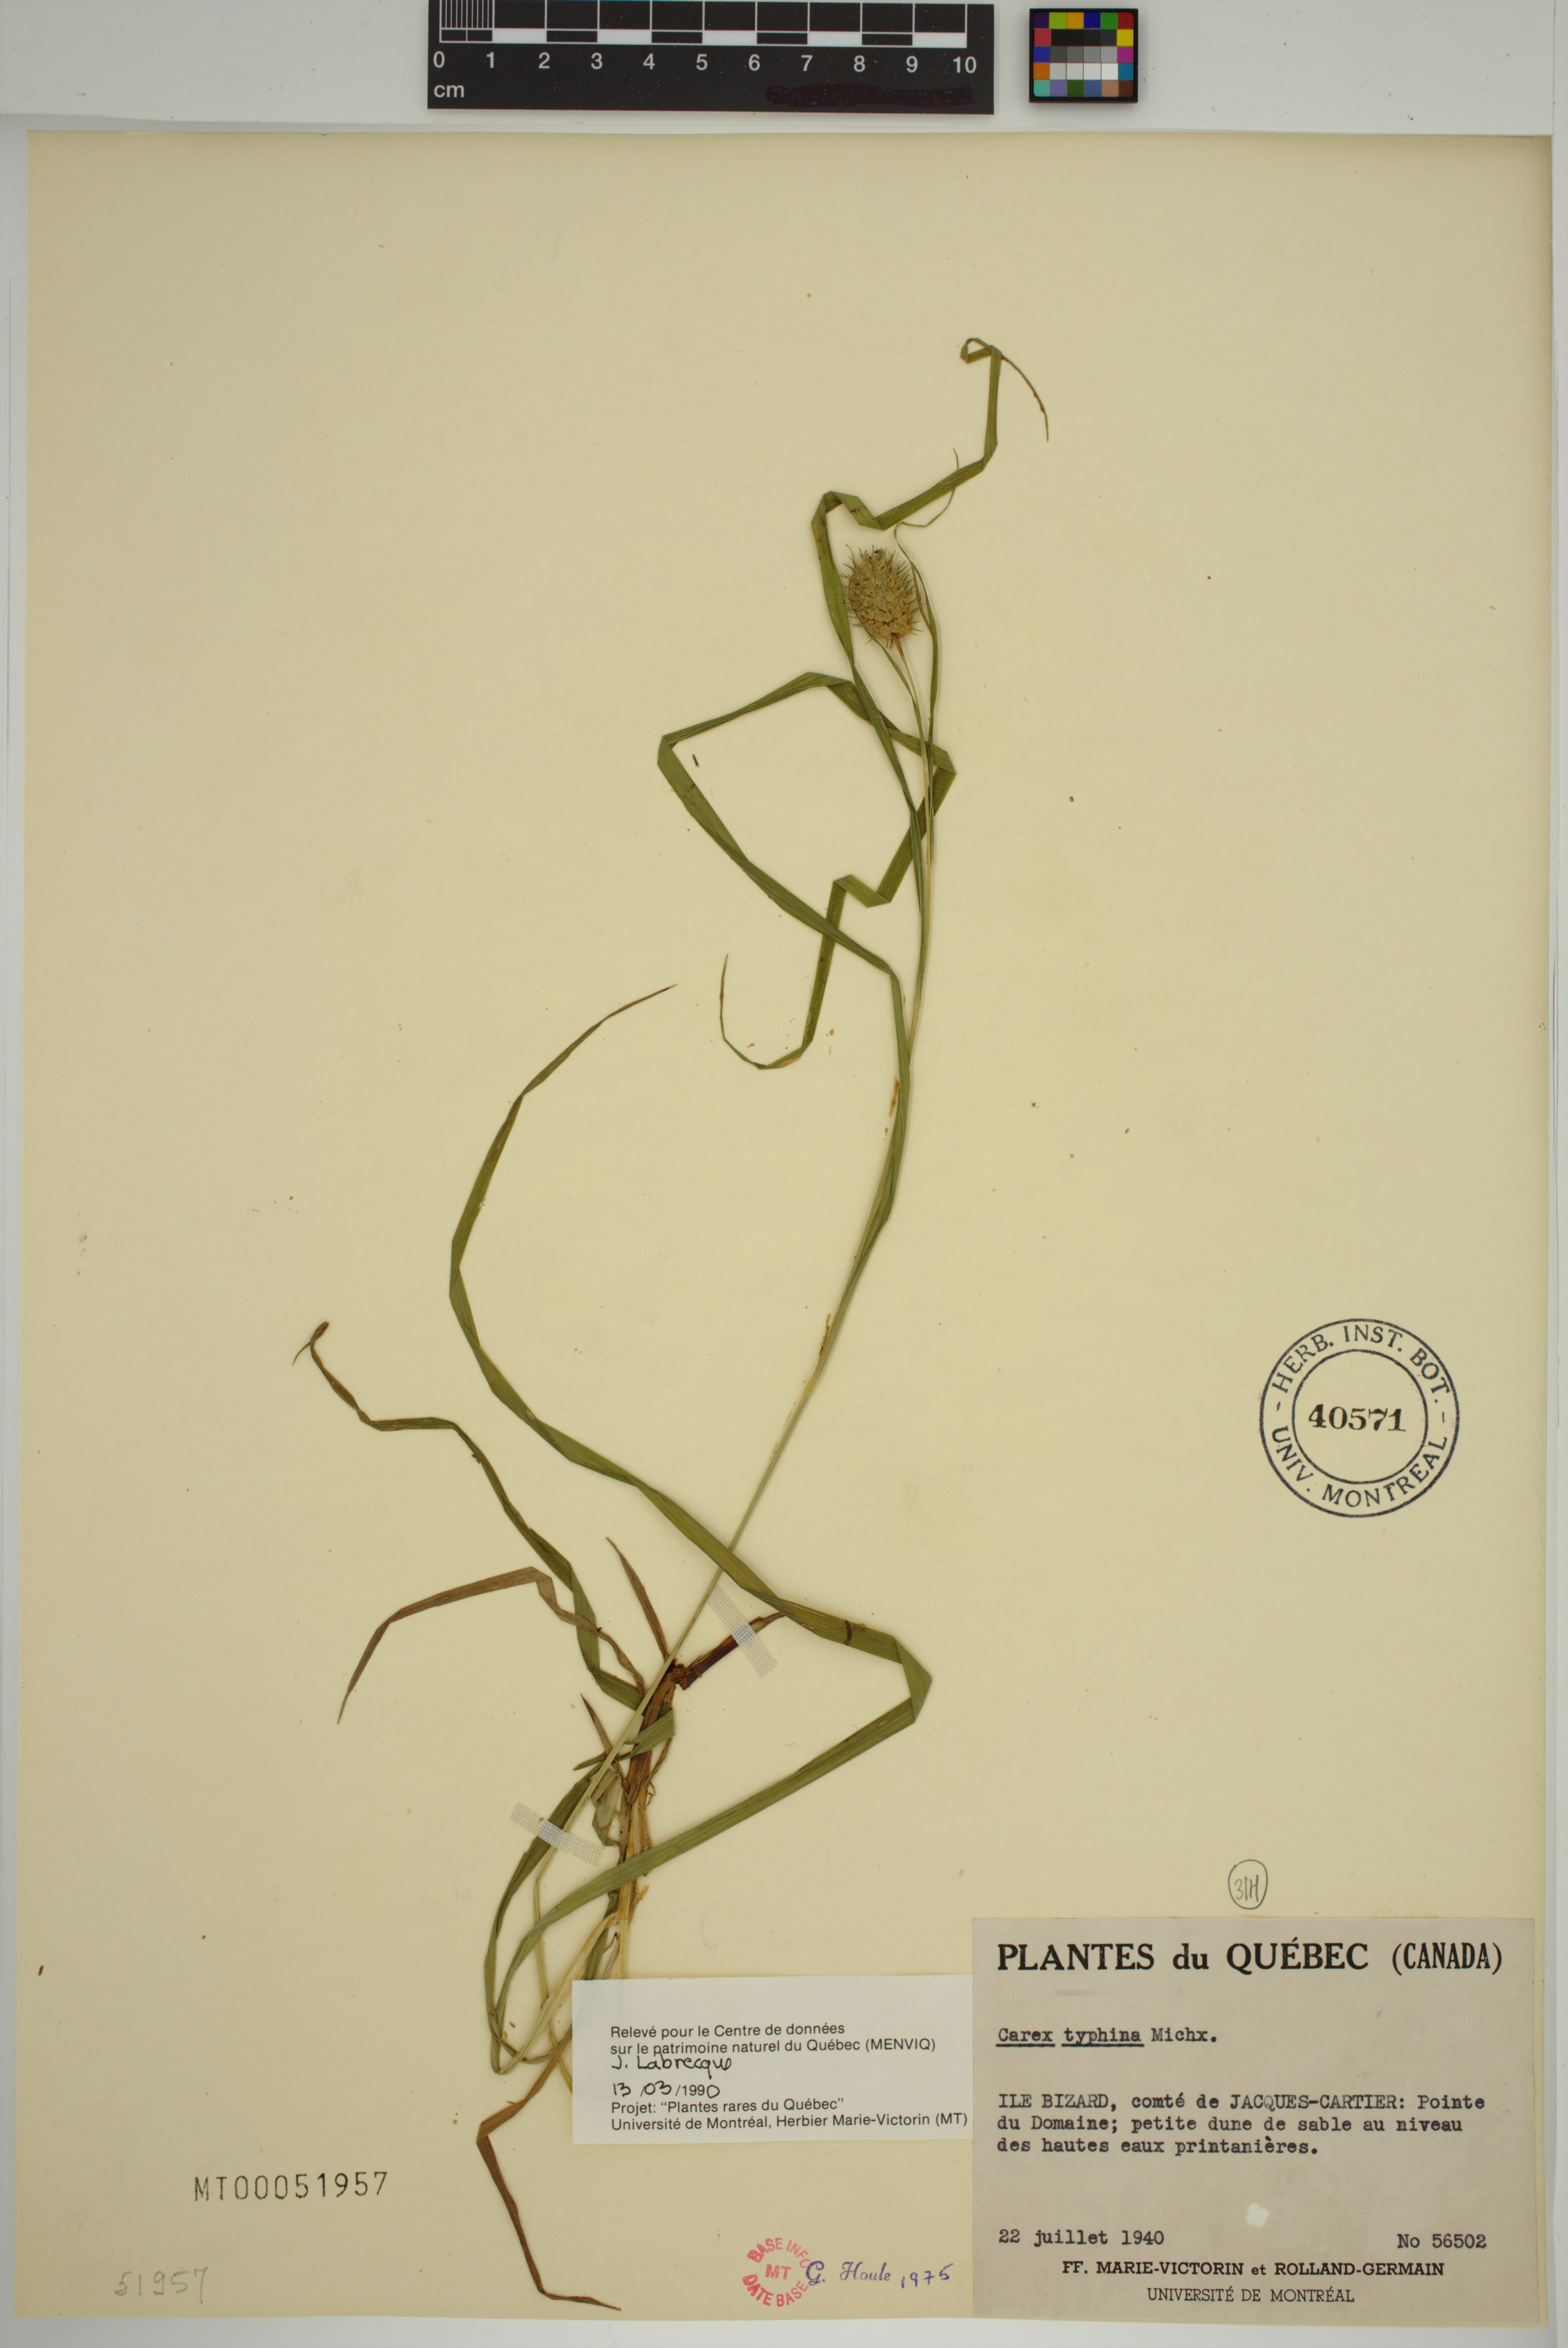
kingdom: Plantae
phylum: Tracheophyta
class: Liliopsida
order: Poales
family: Cyperaceae
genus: Carex
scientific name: Carex typhina
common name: Cattail sedge
